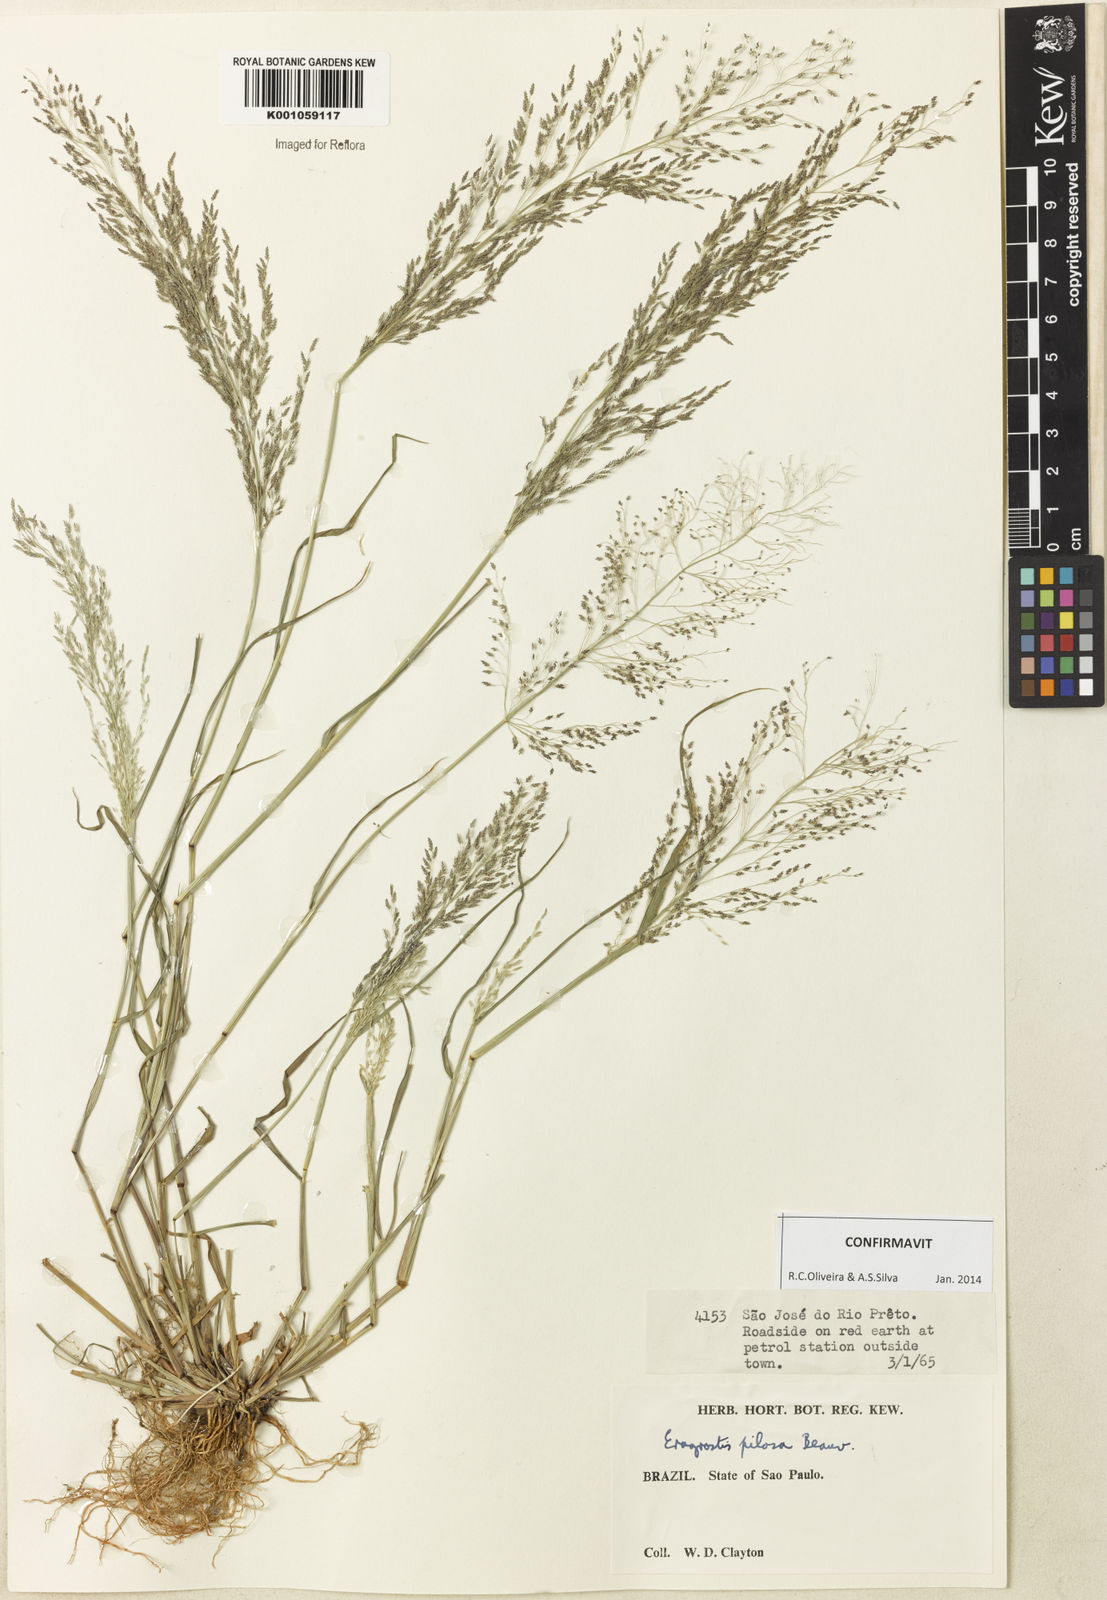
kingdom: Plantae
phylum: Tracheophyta
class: Liliopsida
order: Poales
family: Poaceae
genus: Eragrostis
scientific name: Eragrostis pilosa
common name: Indian lovegrass
